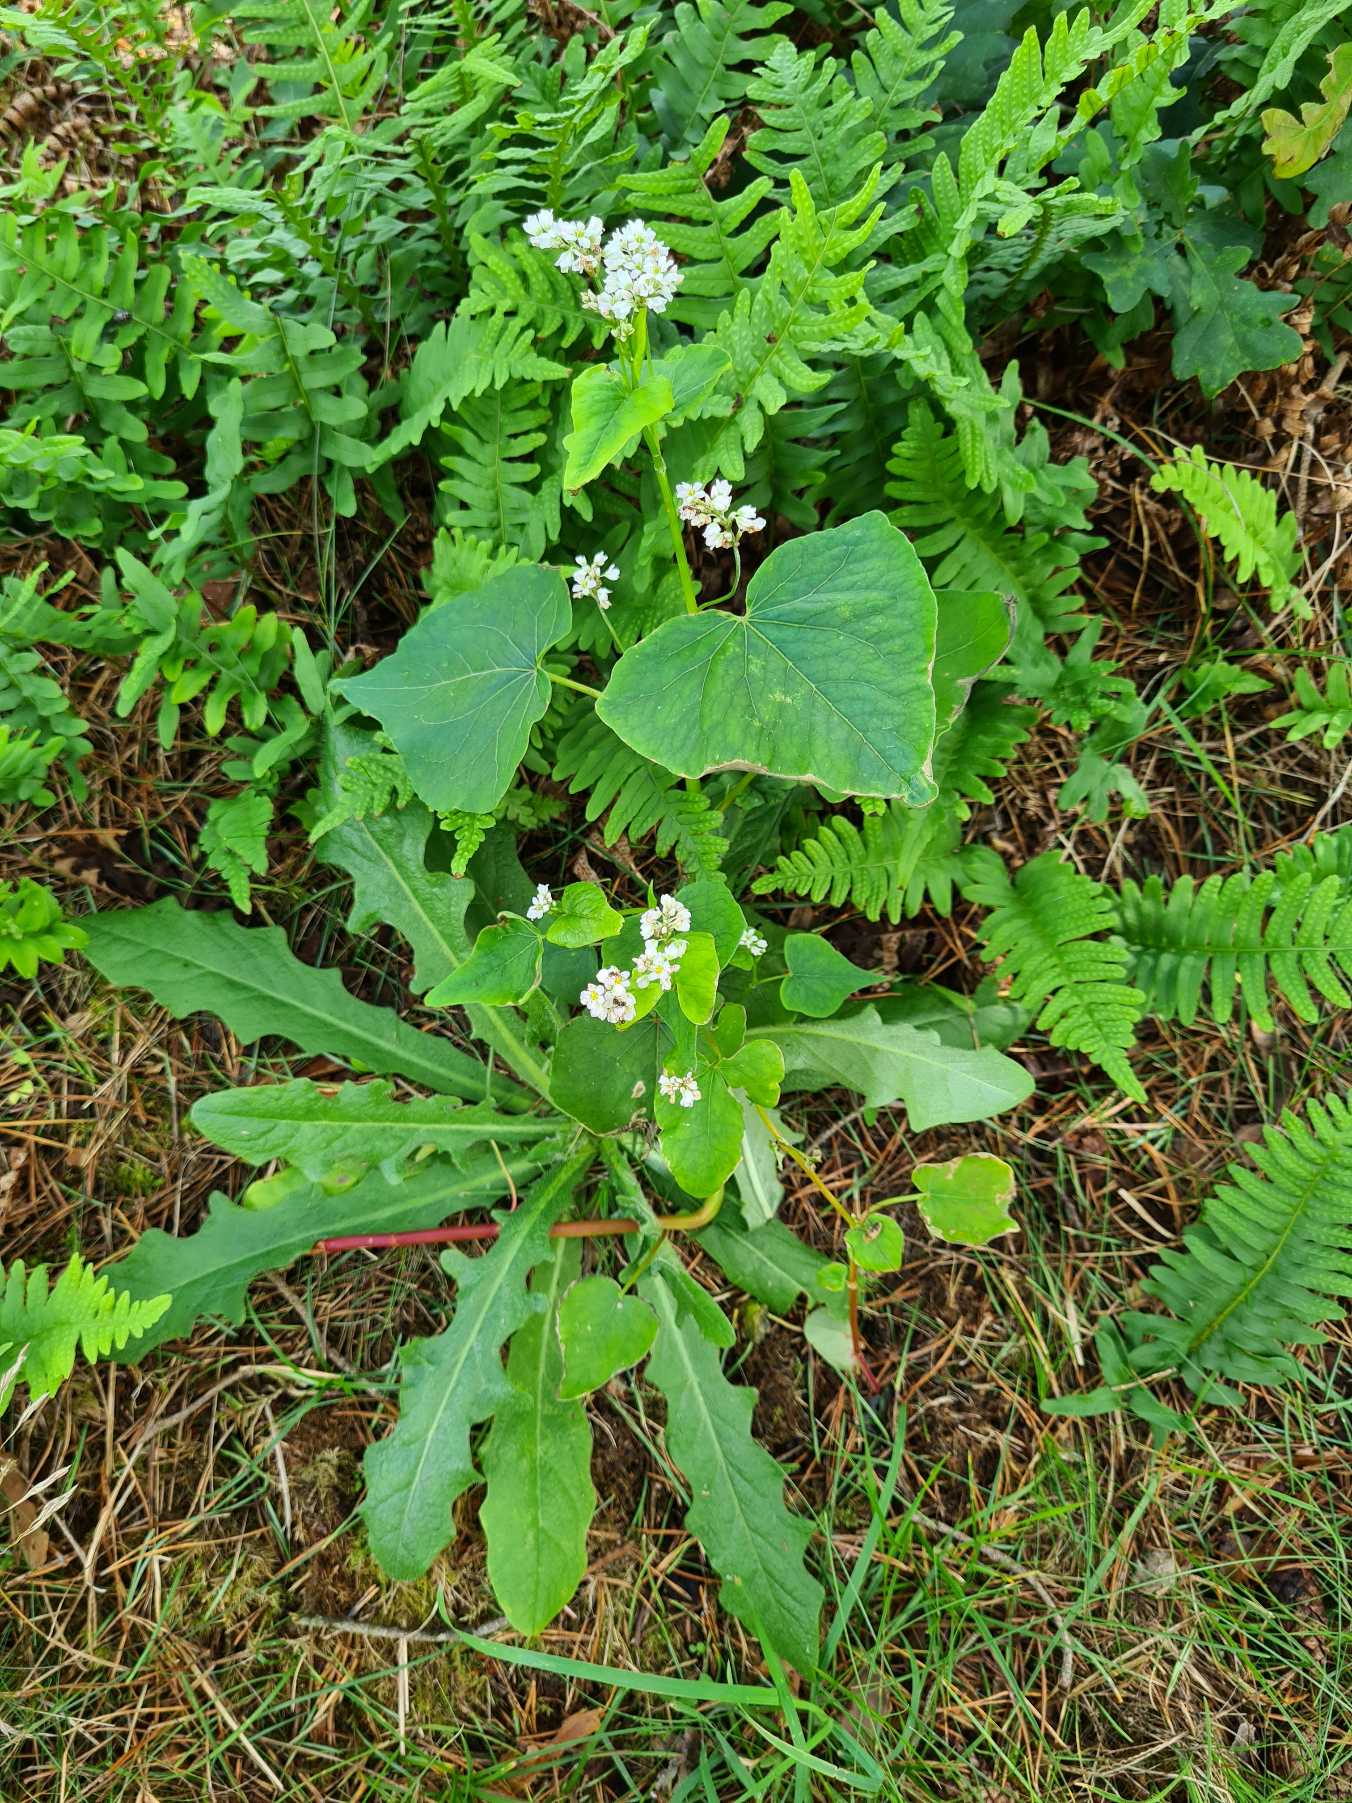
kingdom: Plantae
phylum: Tracheophyta
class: Magnoliopsida
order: Caryophyllales
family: Polygonaceae
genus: Fagopyrum
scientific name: Fagopyrum esculentum
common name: Almindelig boghvede
